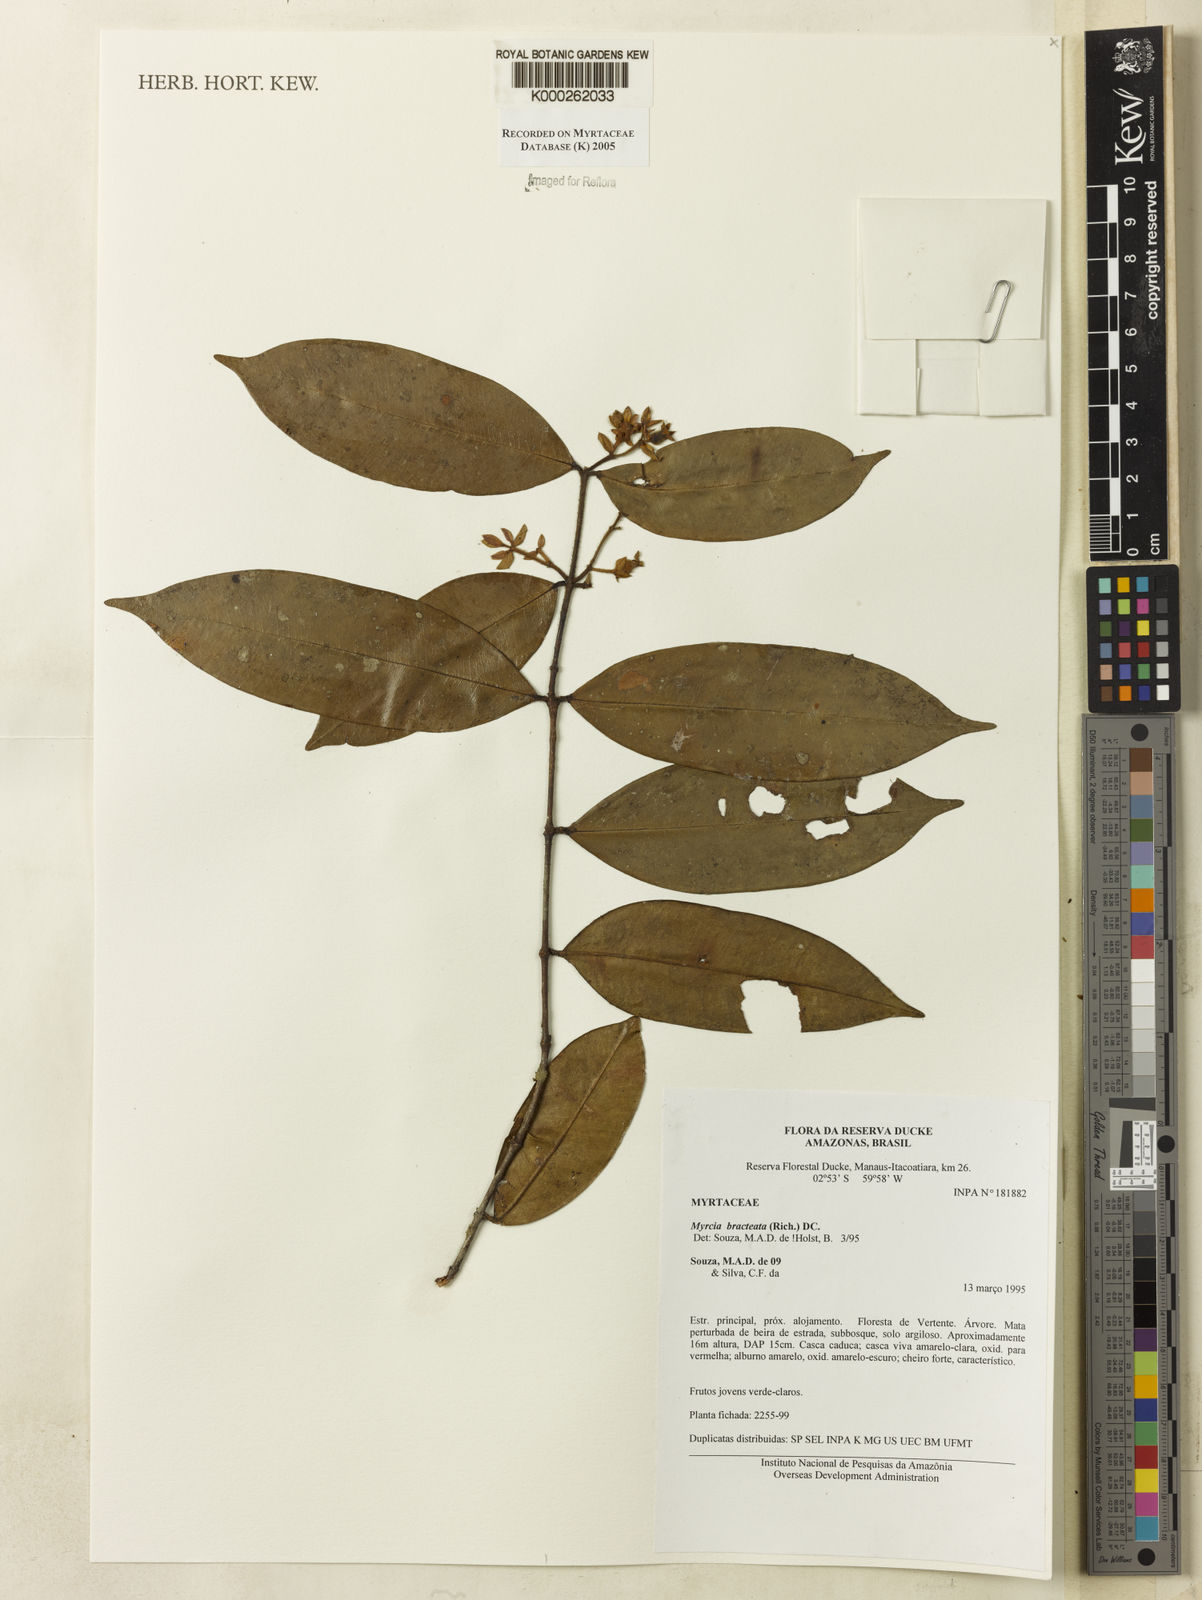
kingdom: Plantae
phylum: Tracheophyta
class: Magnoliopsida
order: Myrtales
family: Myrtaceae
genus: Myrcia
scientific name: Myrcia bracteata
